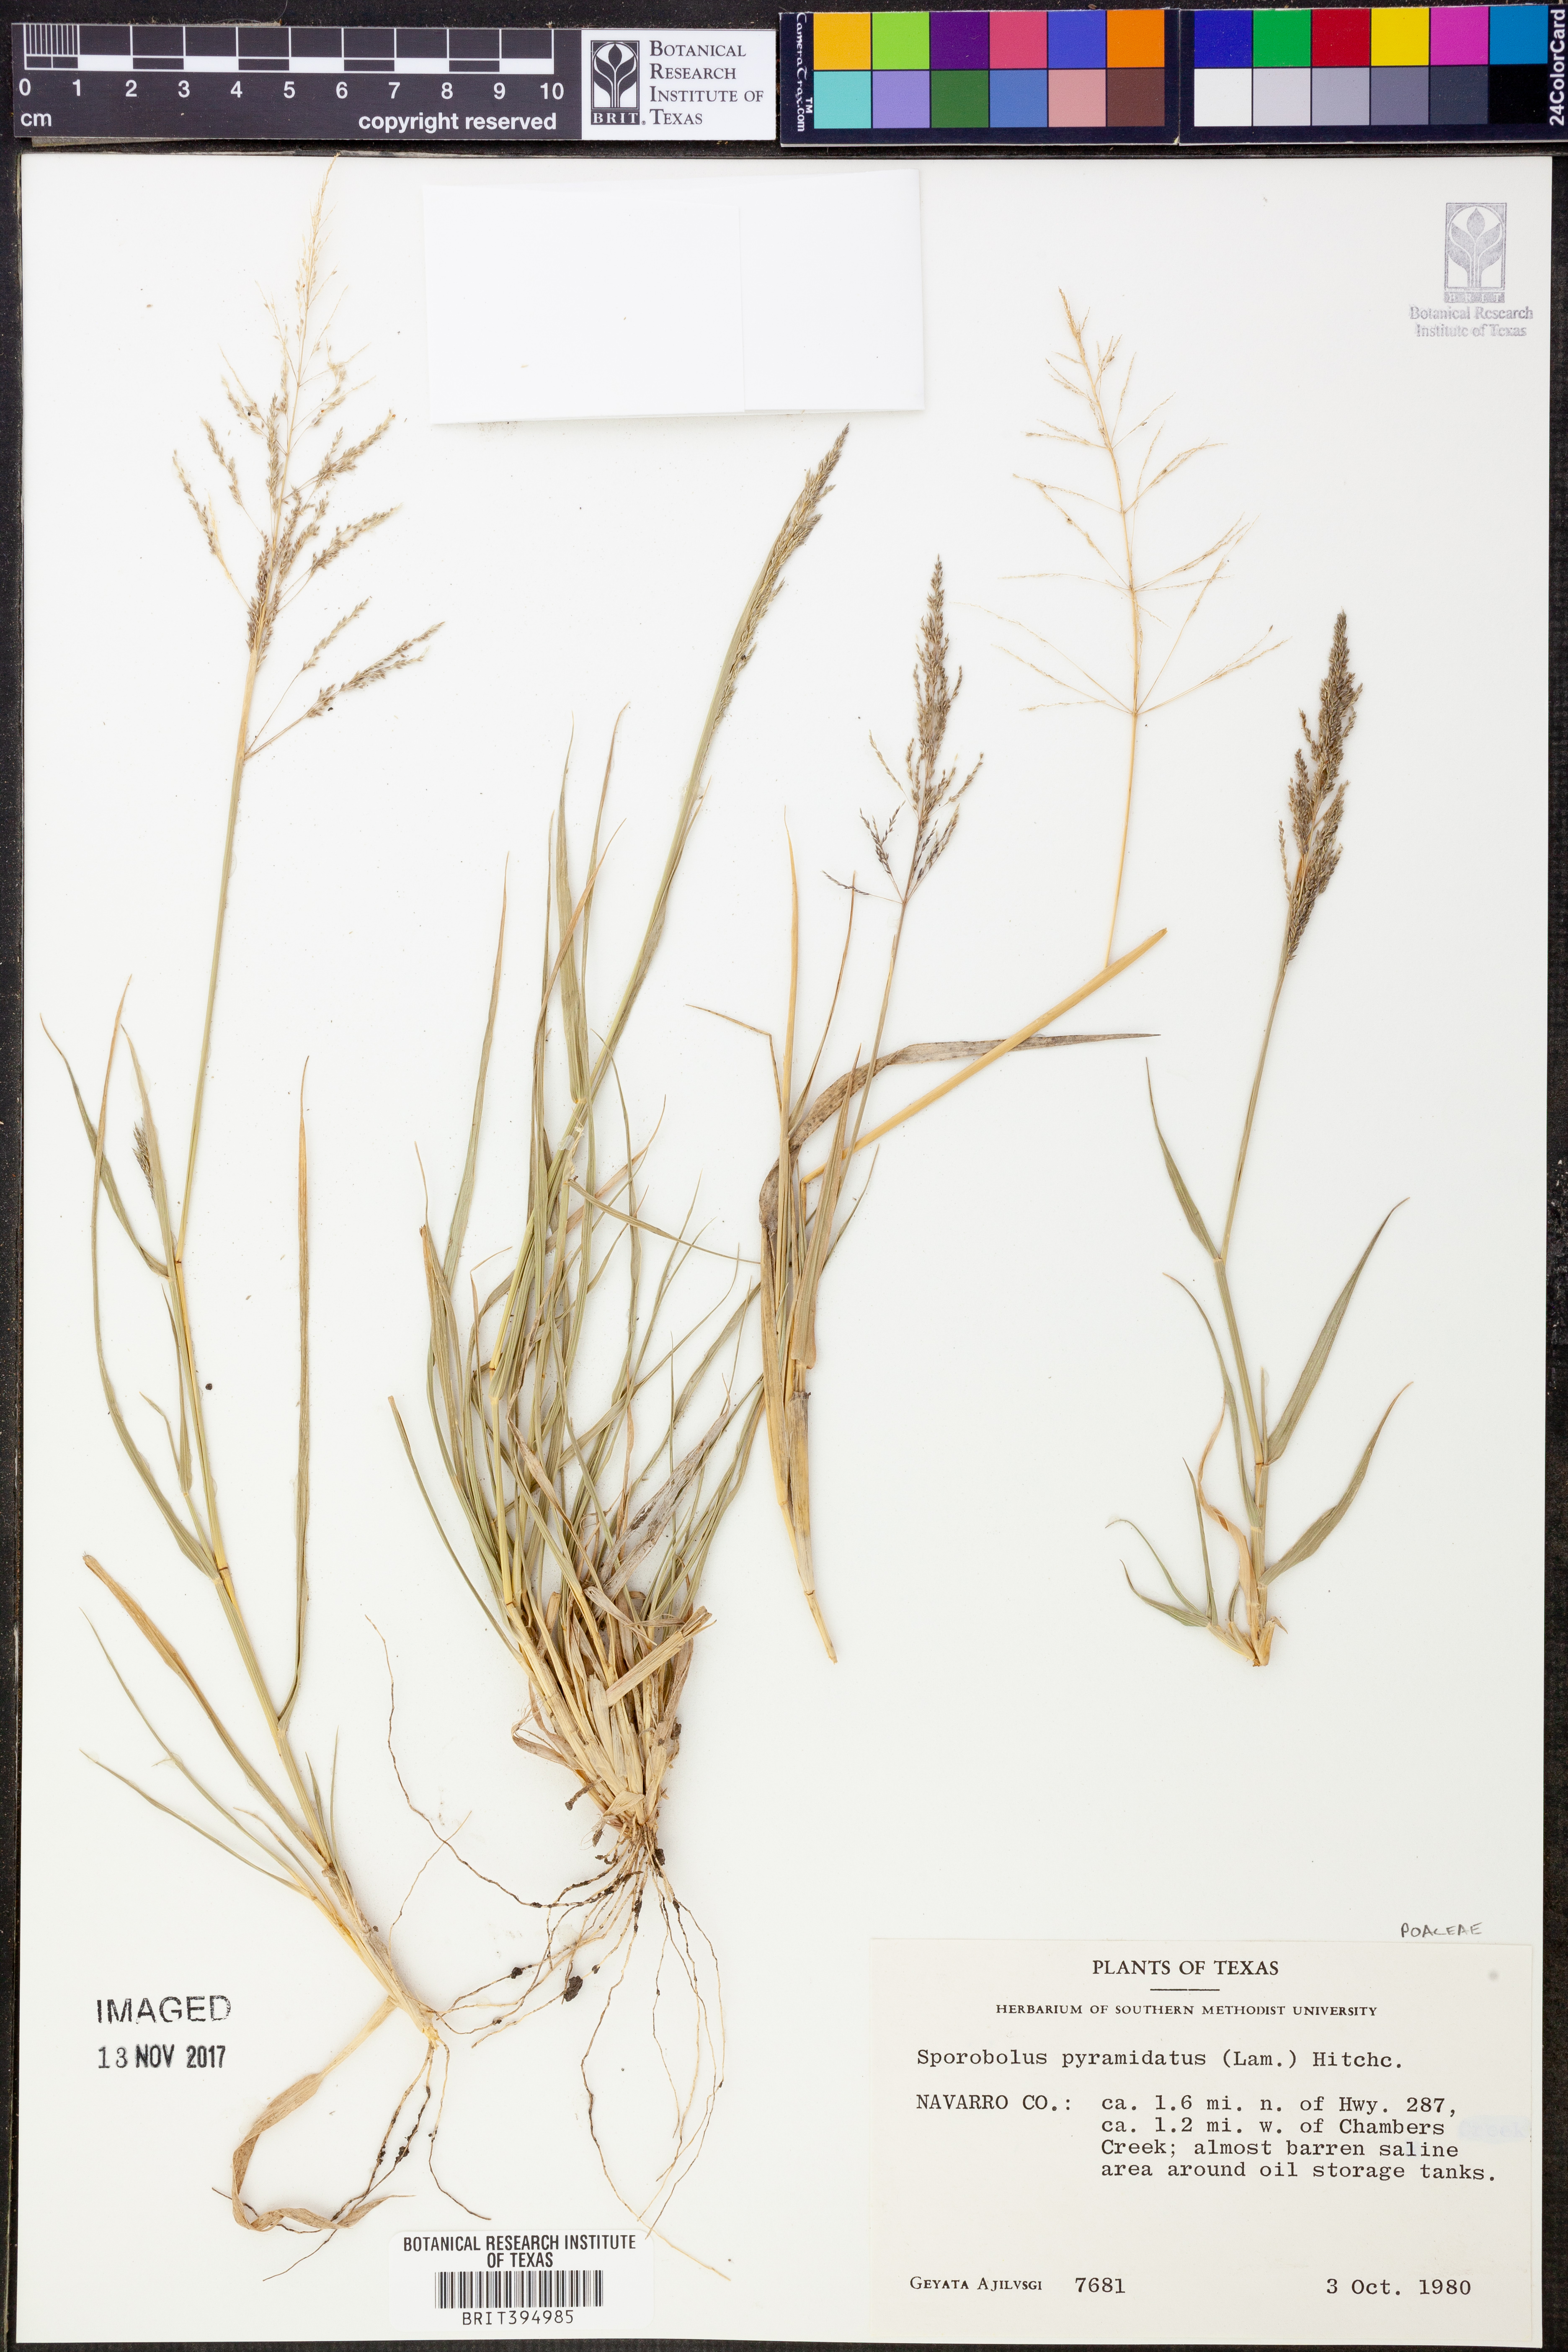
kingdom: Plantae
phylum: Tracheophyta
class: Liliopsida
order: Poales
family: Poaceae
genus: Sporobolus
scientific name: Sporobolus pyramidatus
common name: Whorled dropseed
